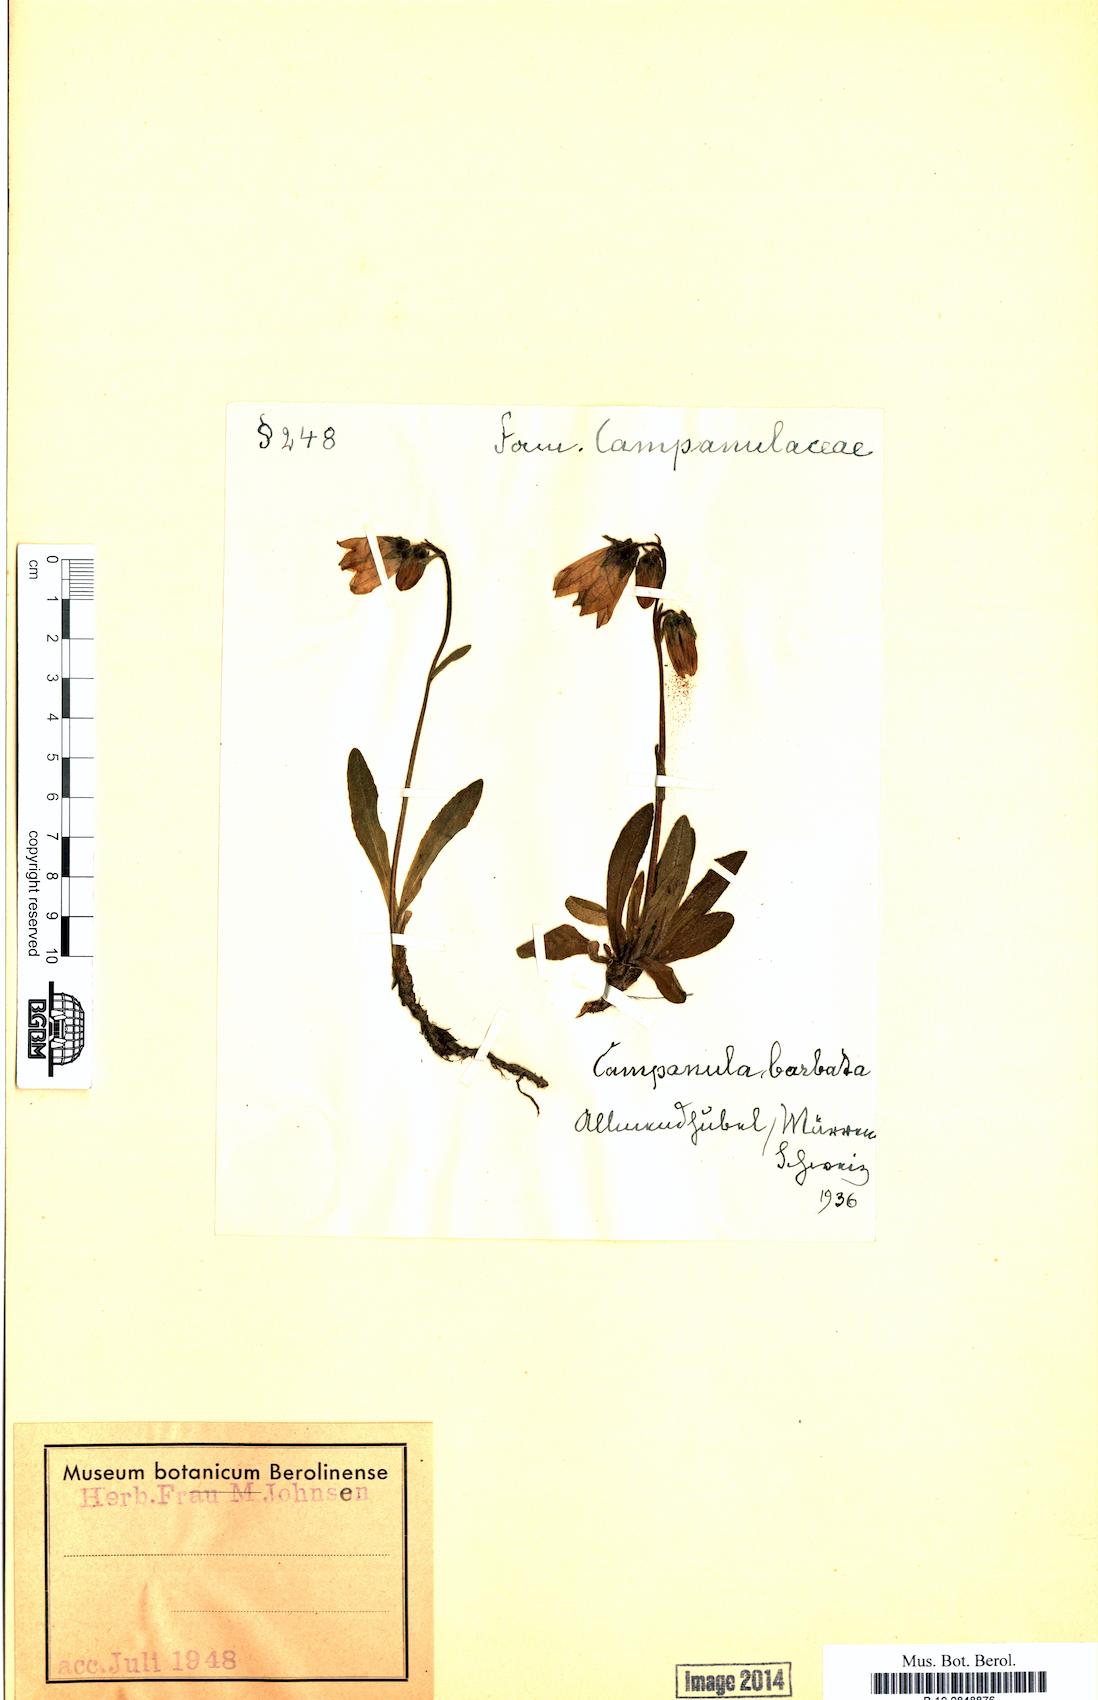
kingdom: Plantae
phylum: Tracheophyta
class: Magnoliopsida
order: Asterales
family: Campanulaceae
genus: Campanula
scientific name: Campanula barbata
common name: Bearded bellflower
